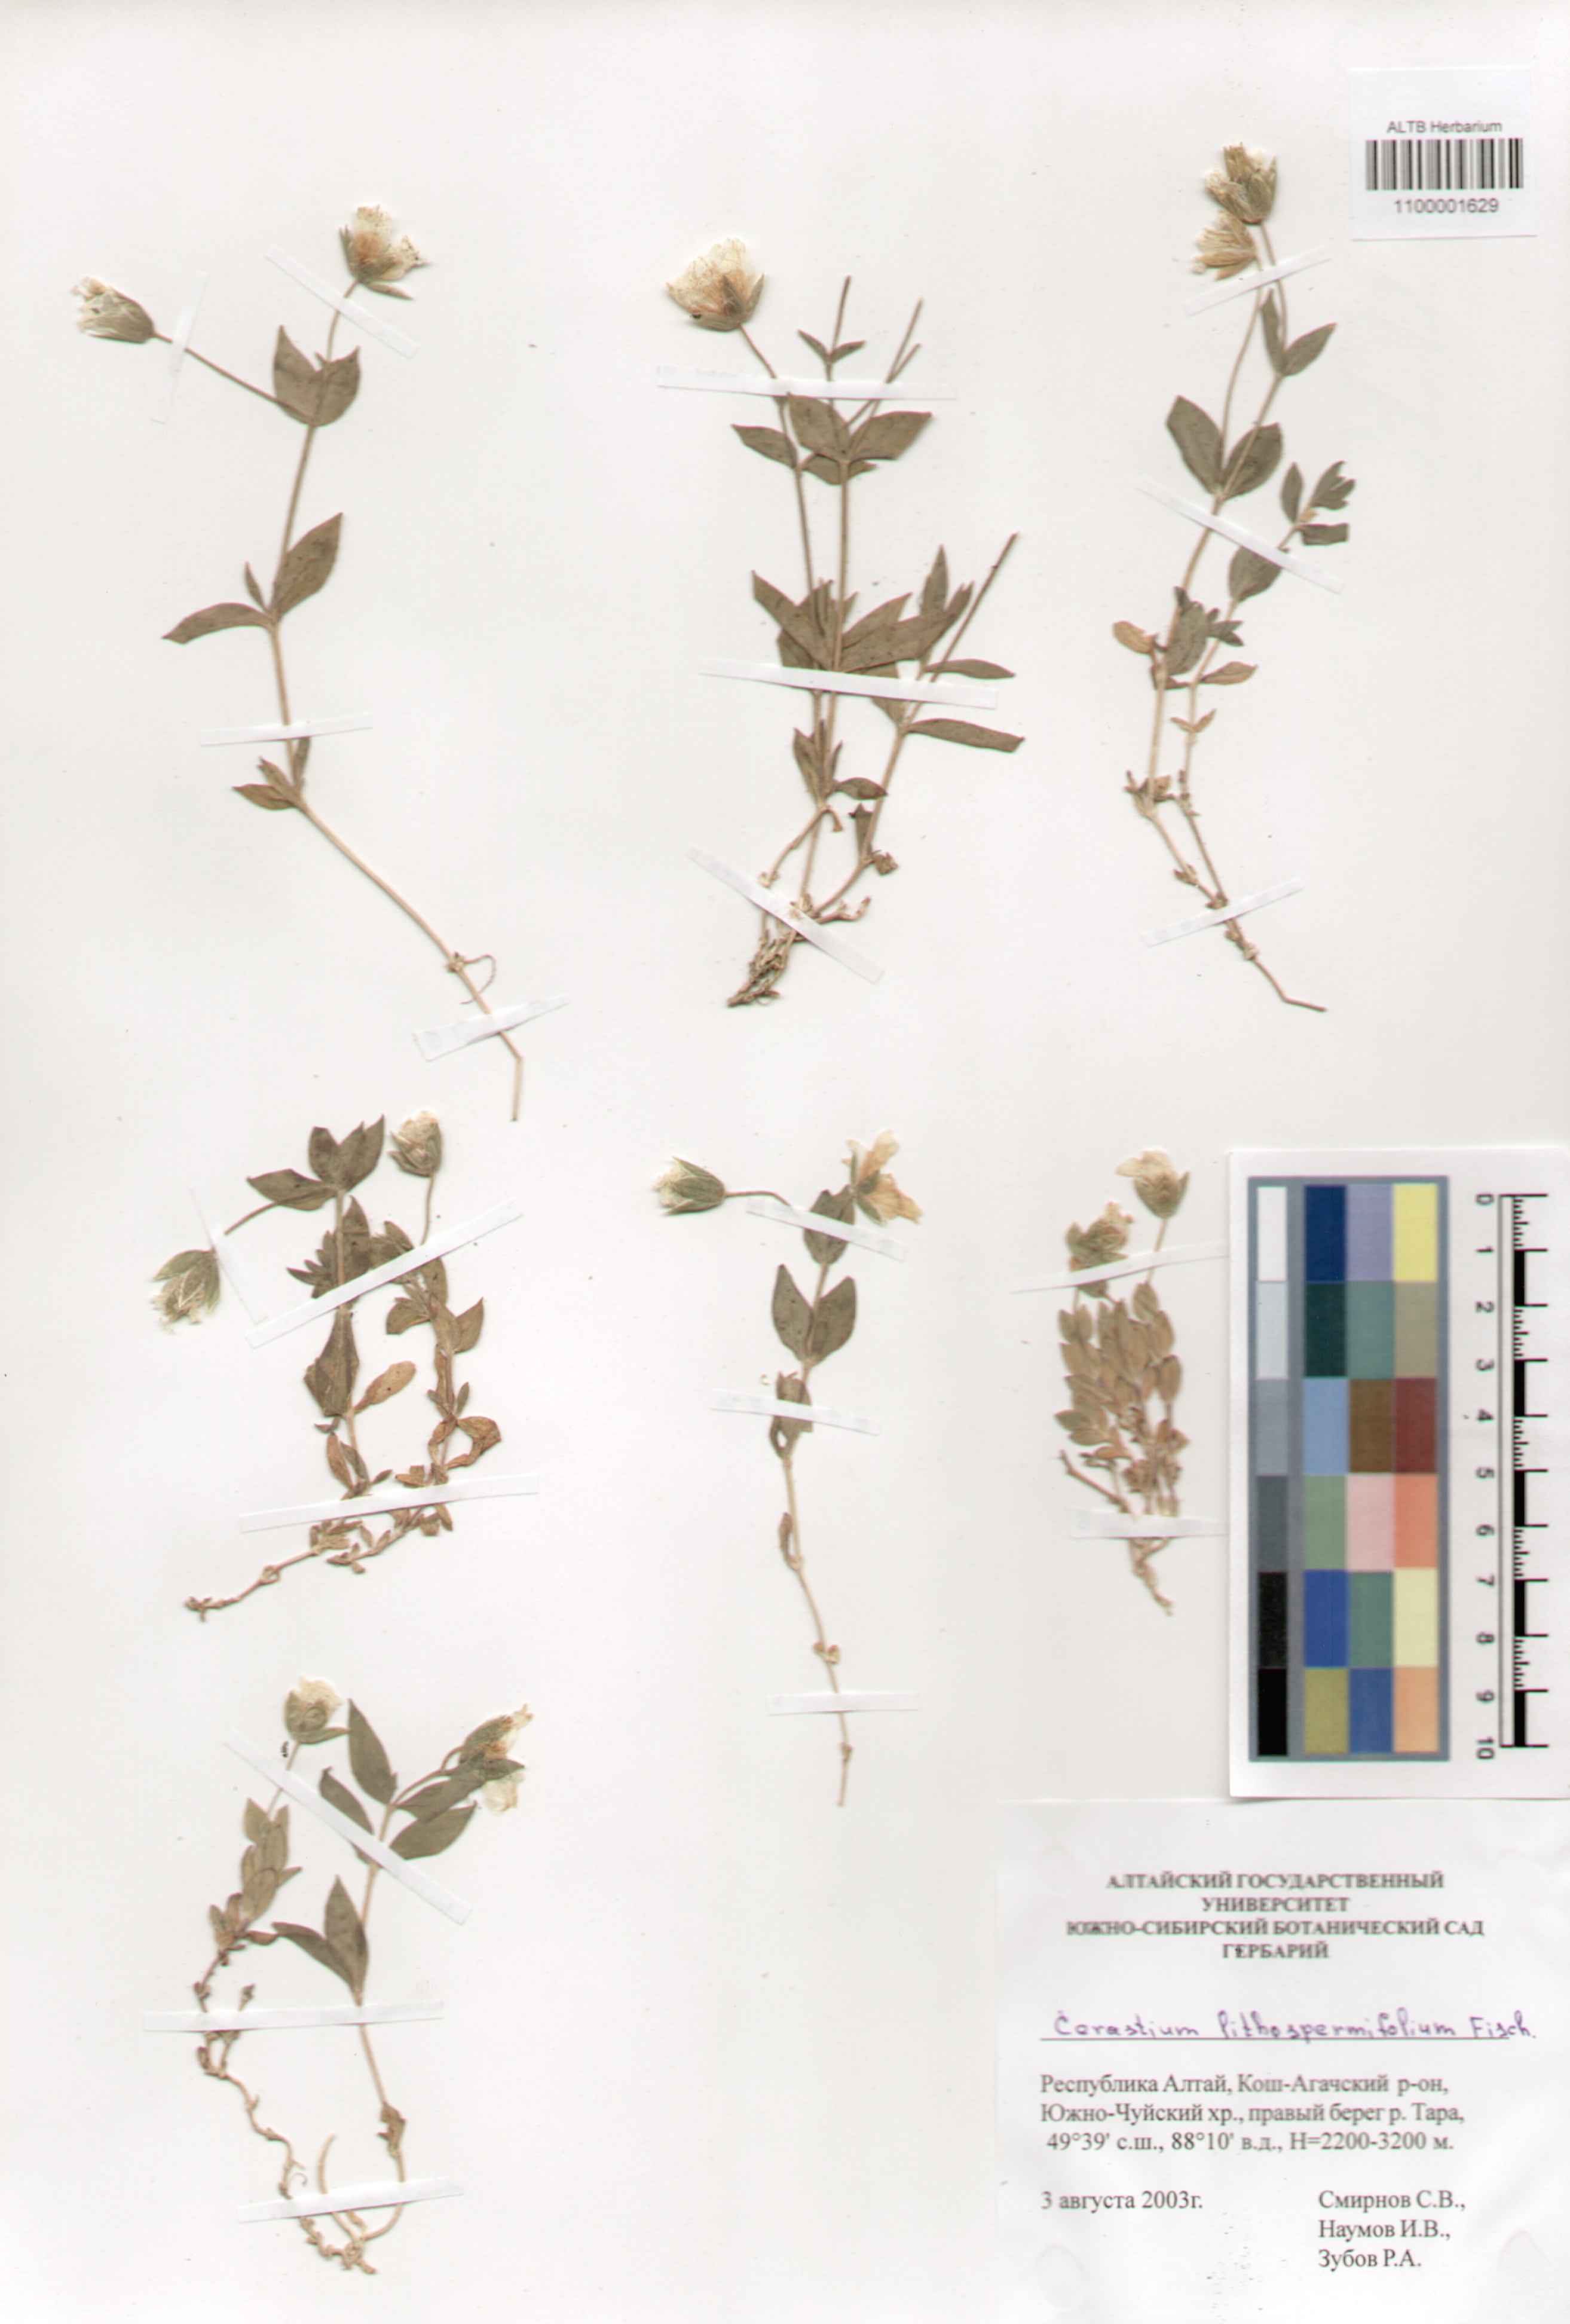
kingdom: Plantae
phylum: Tracheophyta
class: Magnoliopsida
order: Caryophyllales
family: Caryophyllaceae
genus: Cerastium
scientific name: Cerastium lithospermifolium
